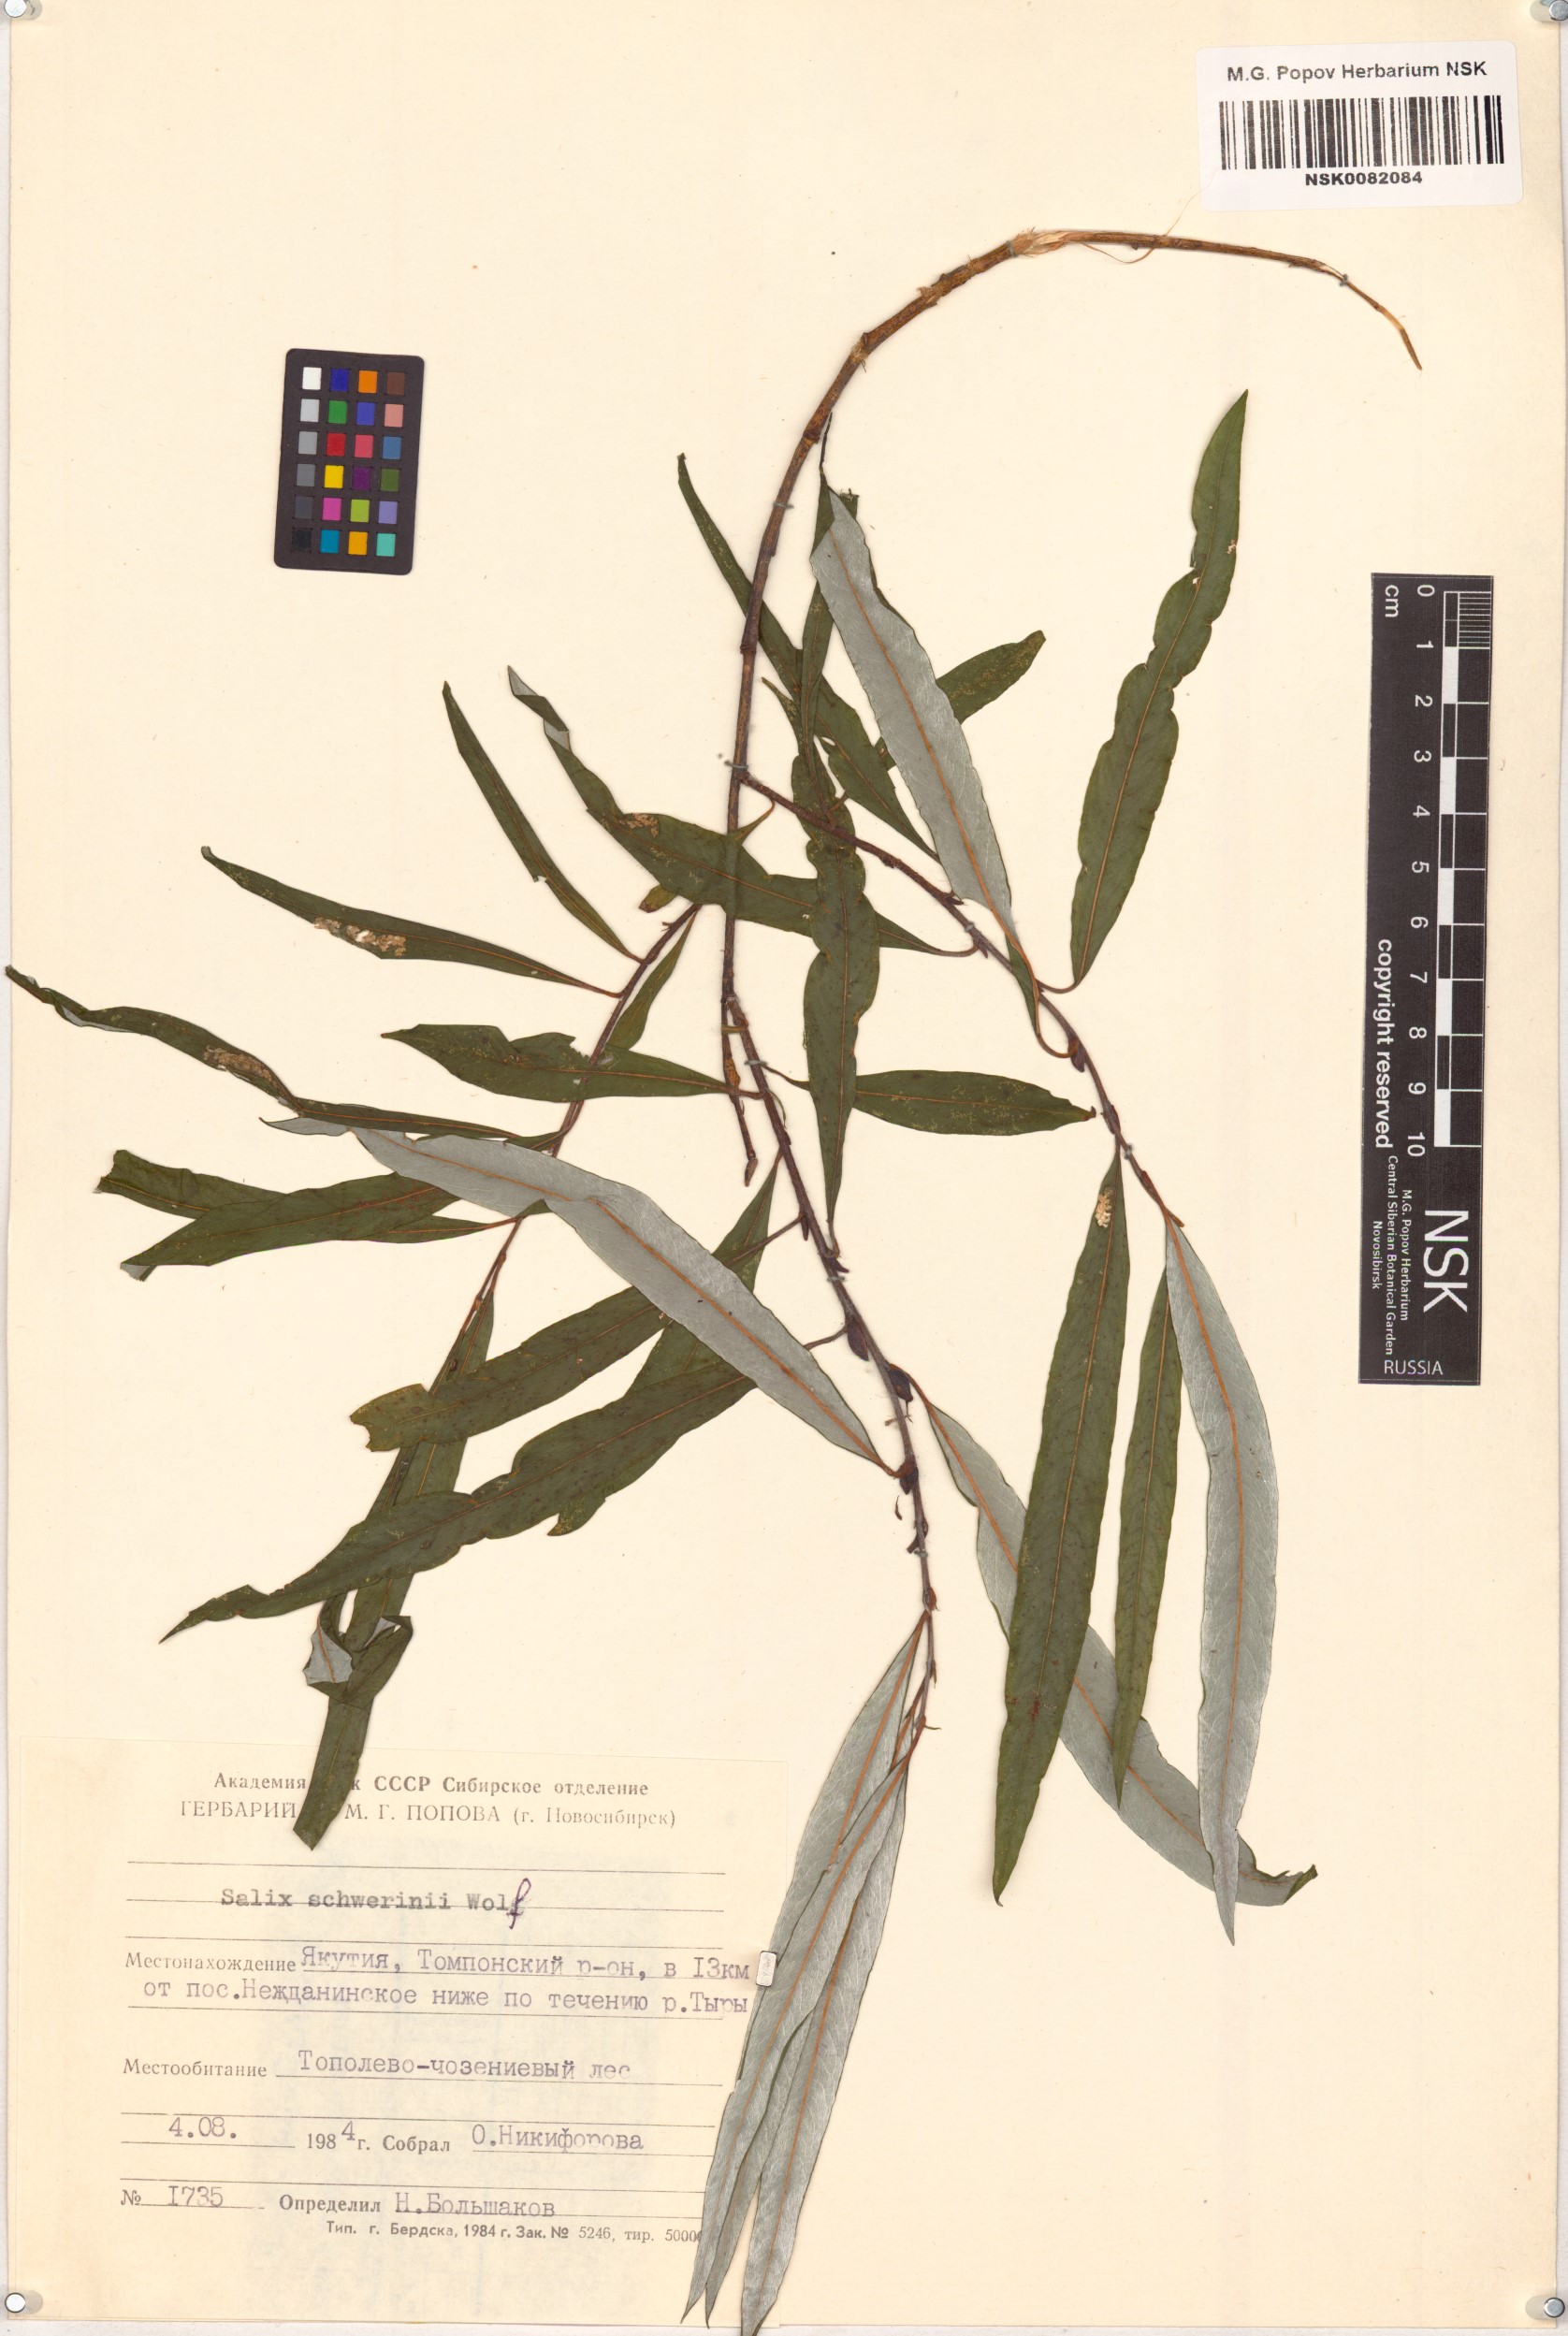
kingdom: Plantae
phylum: Tracheophyta
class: Magnoliopsida
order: Malpighiales
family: Salicaceae
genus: Salix
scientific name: Salix schwerinii
